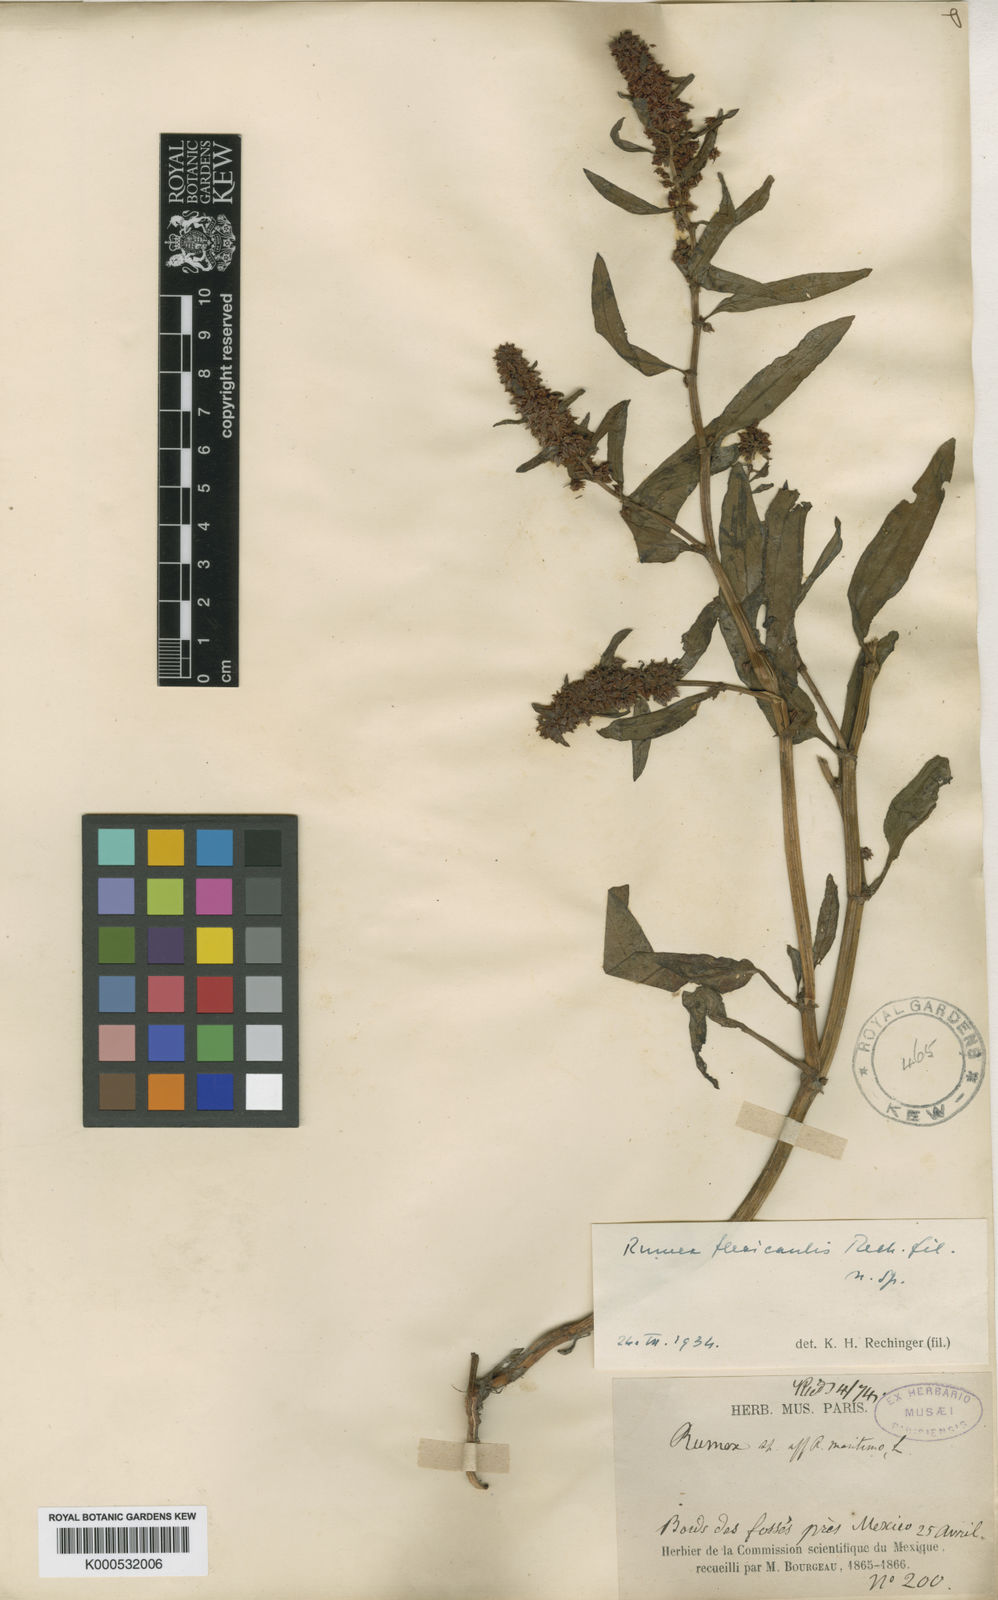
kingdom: Plantae
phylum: Tracheophyta
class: Magnoliopsida
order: Caryophyllales
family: Polygonaceae
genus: Rumex
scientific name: Rumex flexicaulis
